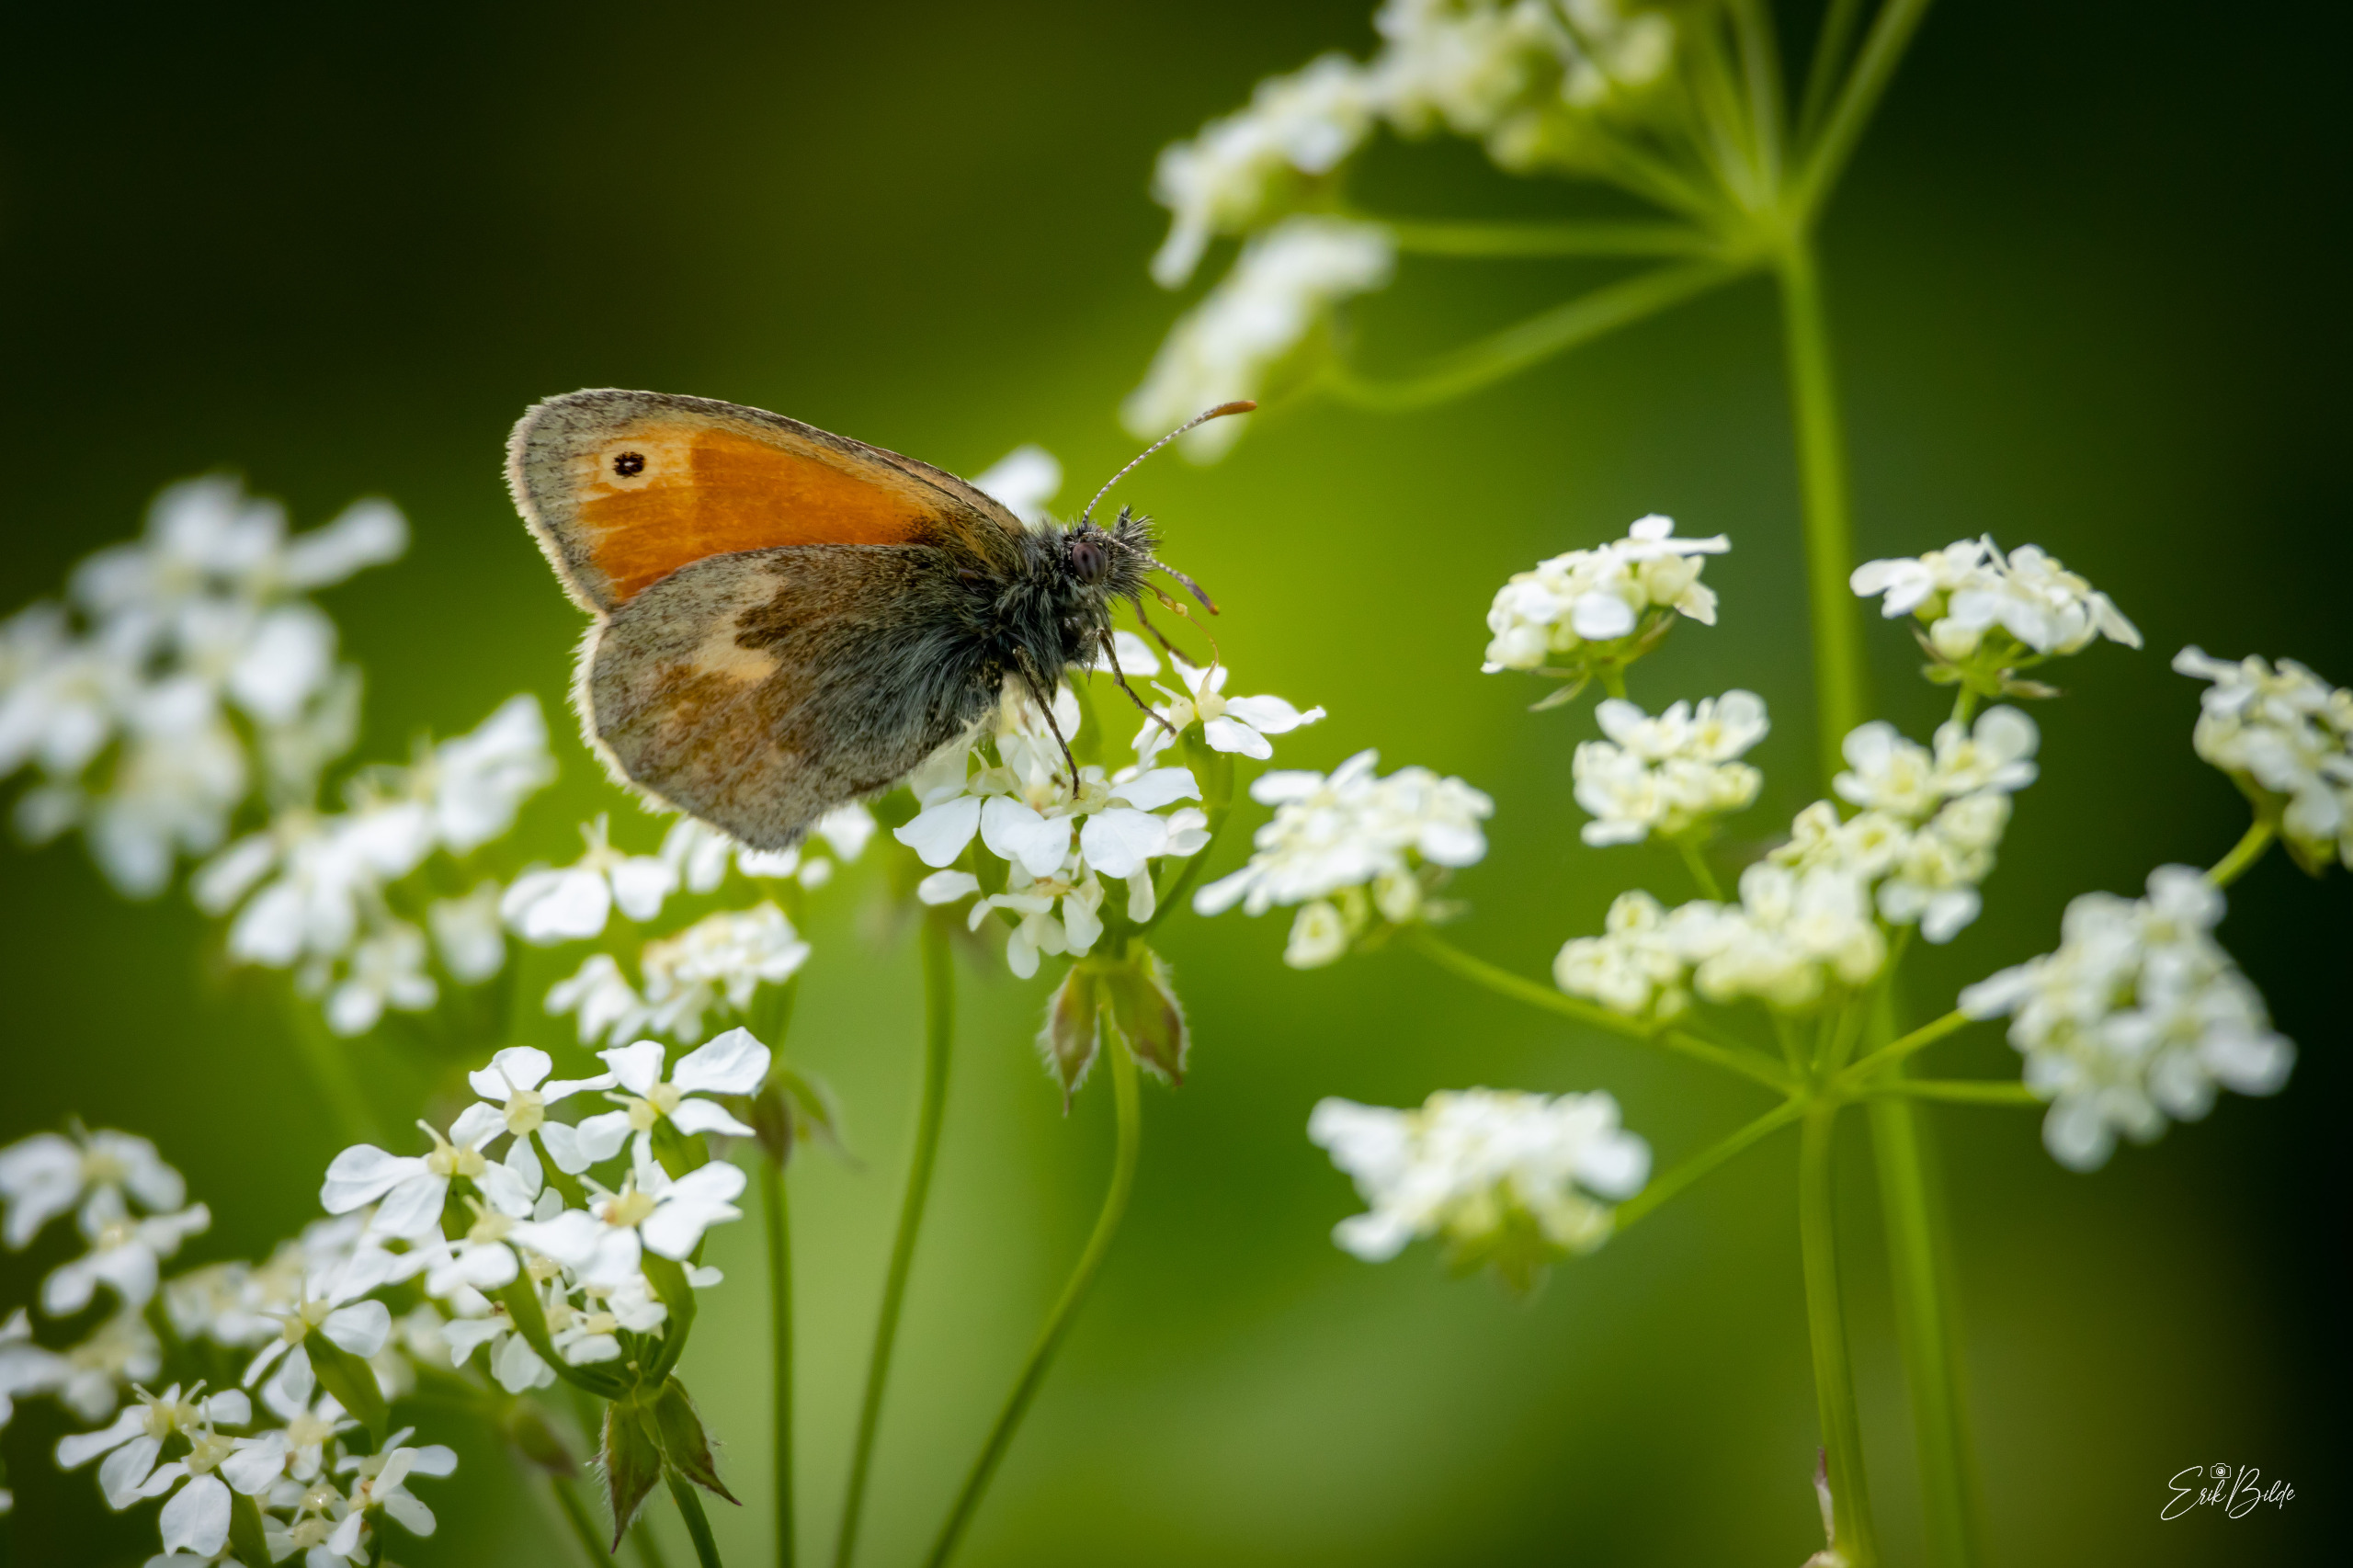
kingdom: Animalia
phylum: Arthropoda
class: Insecta
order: Lepidoptera
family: Nymphalidae
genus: Coenonympha
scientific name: Coenonympha pamphilus
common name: Okkergul randøje
